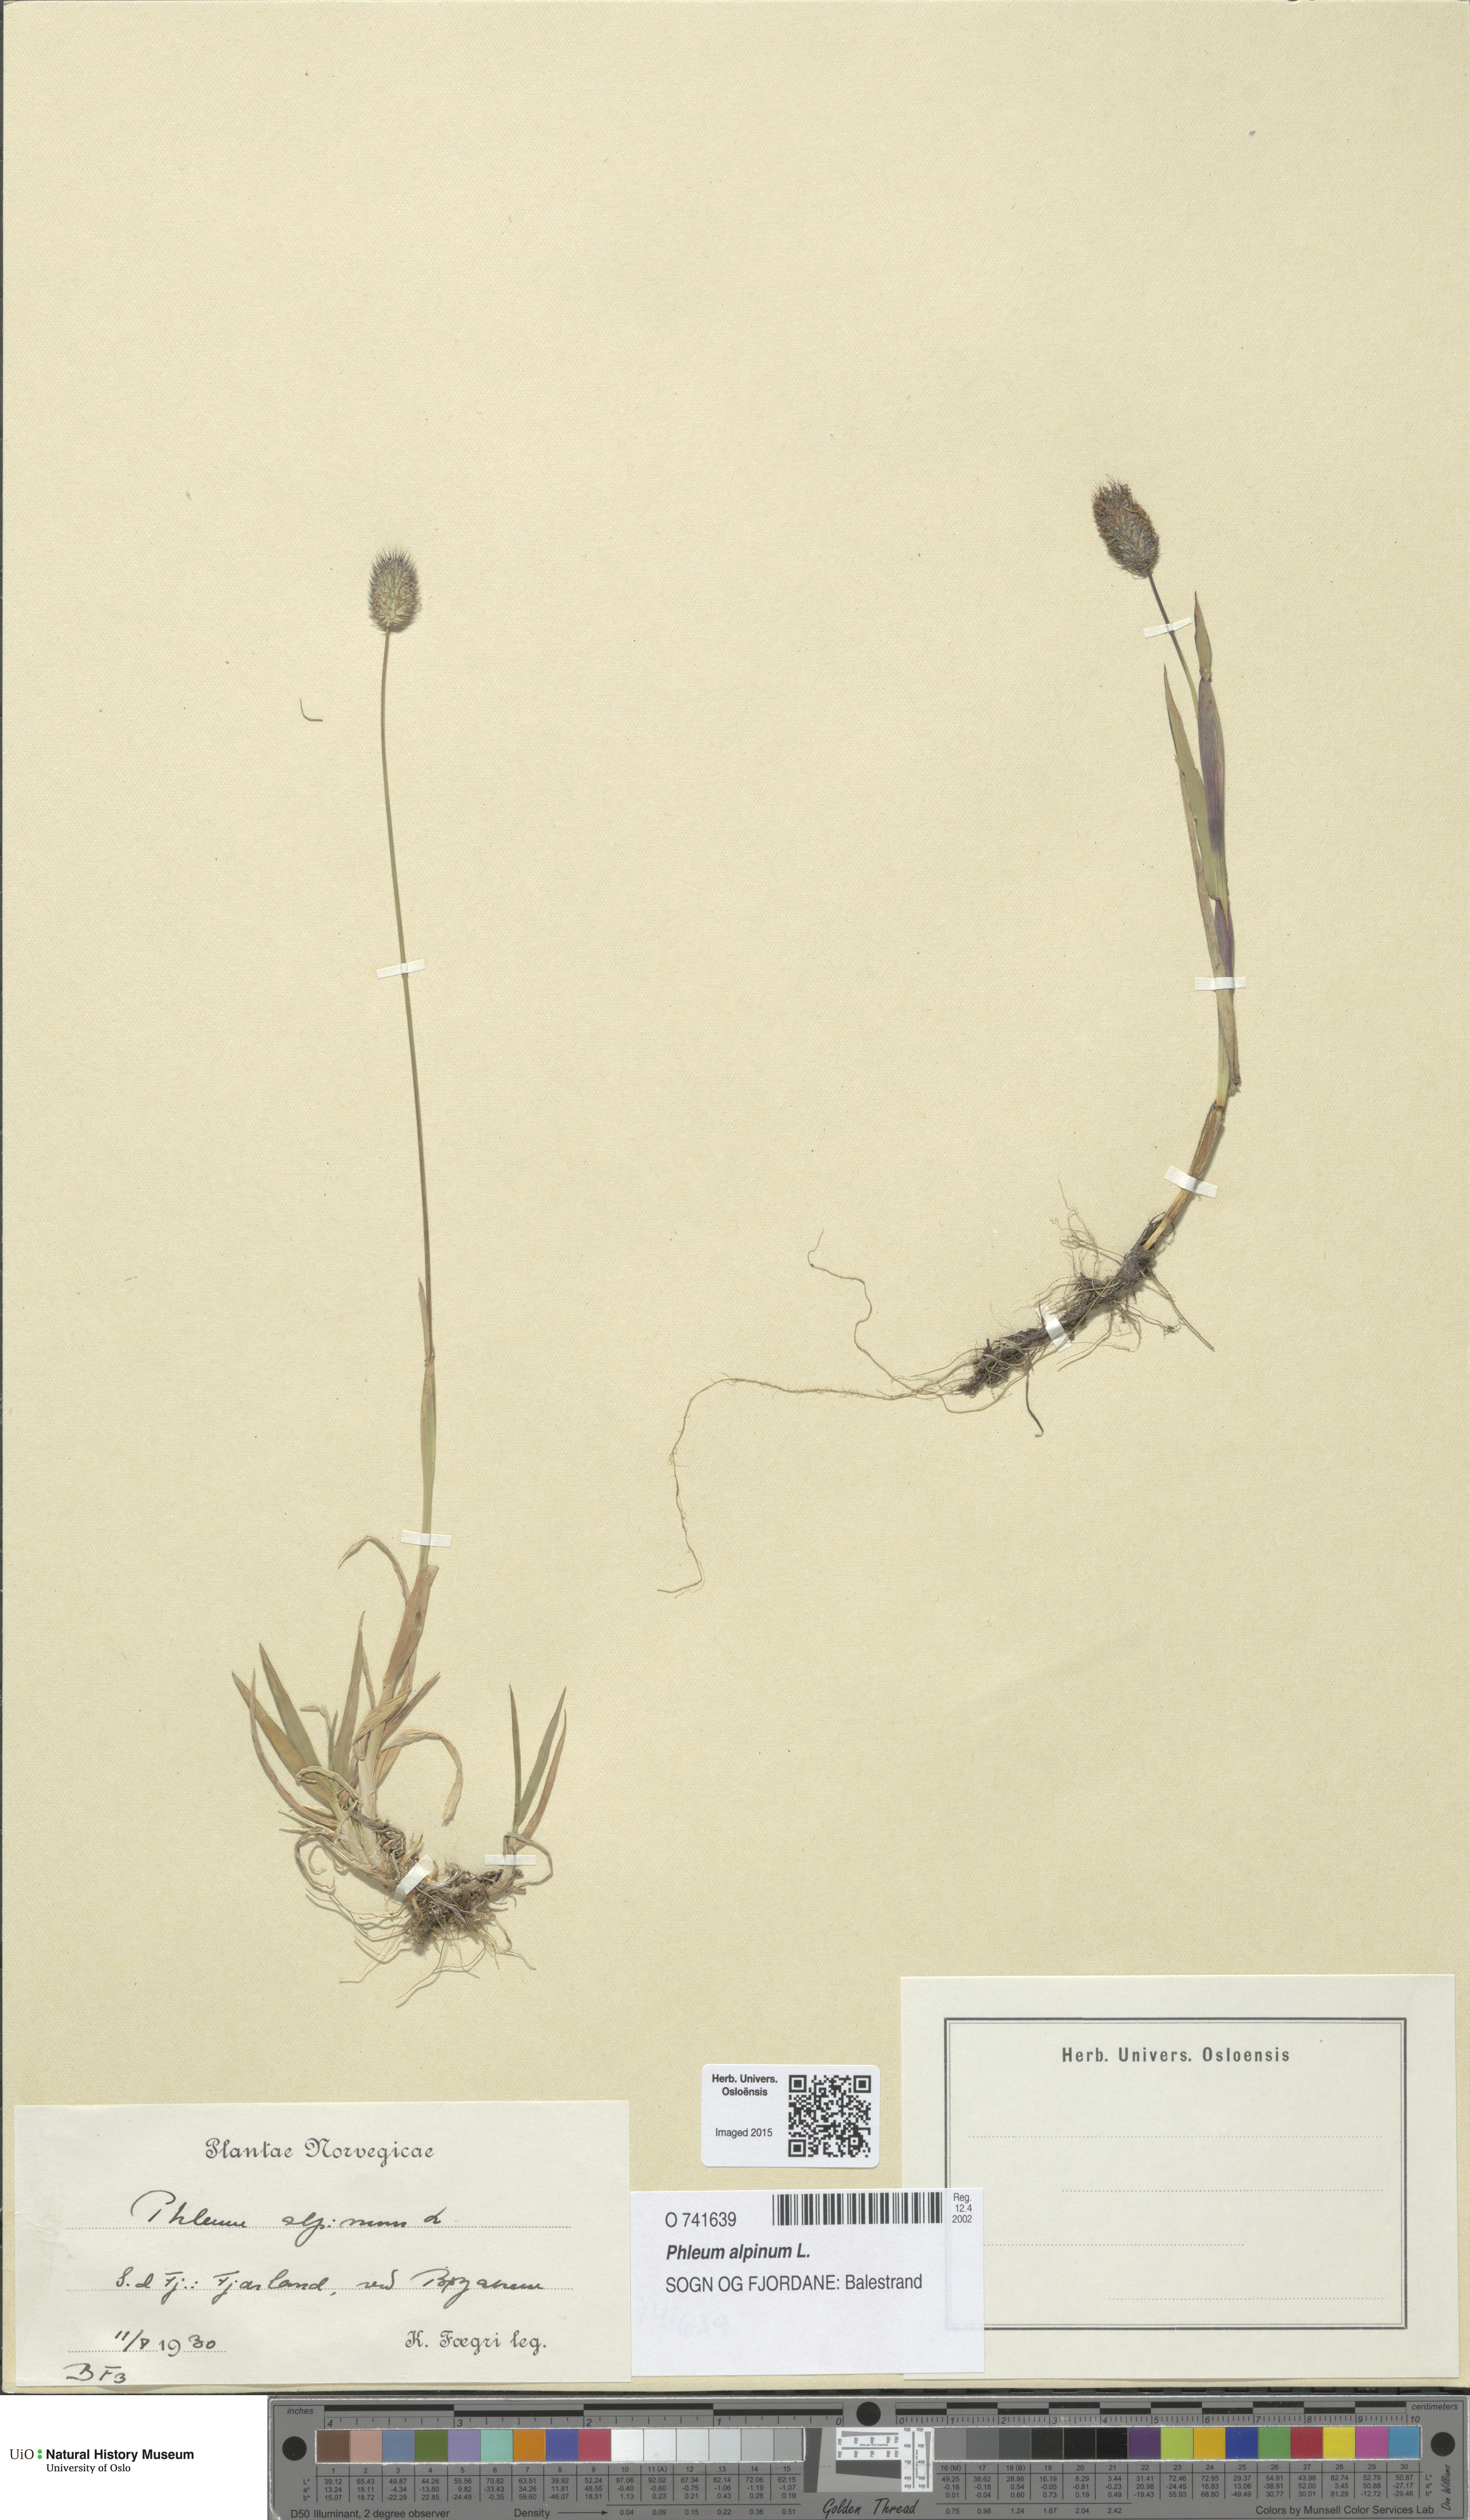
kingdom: Plantae
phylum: Tracheophyta
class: Liliopsida
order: Poales
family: Poaceae
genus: Phleum
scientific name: Phleum alpinum
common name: Alpine cat's-tail
